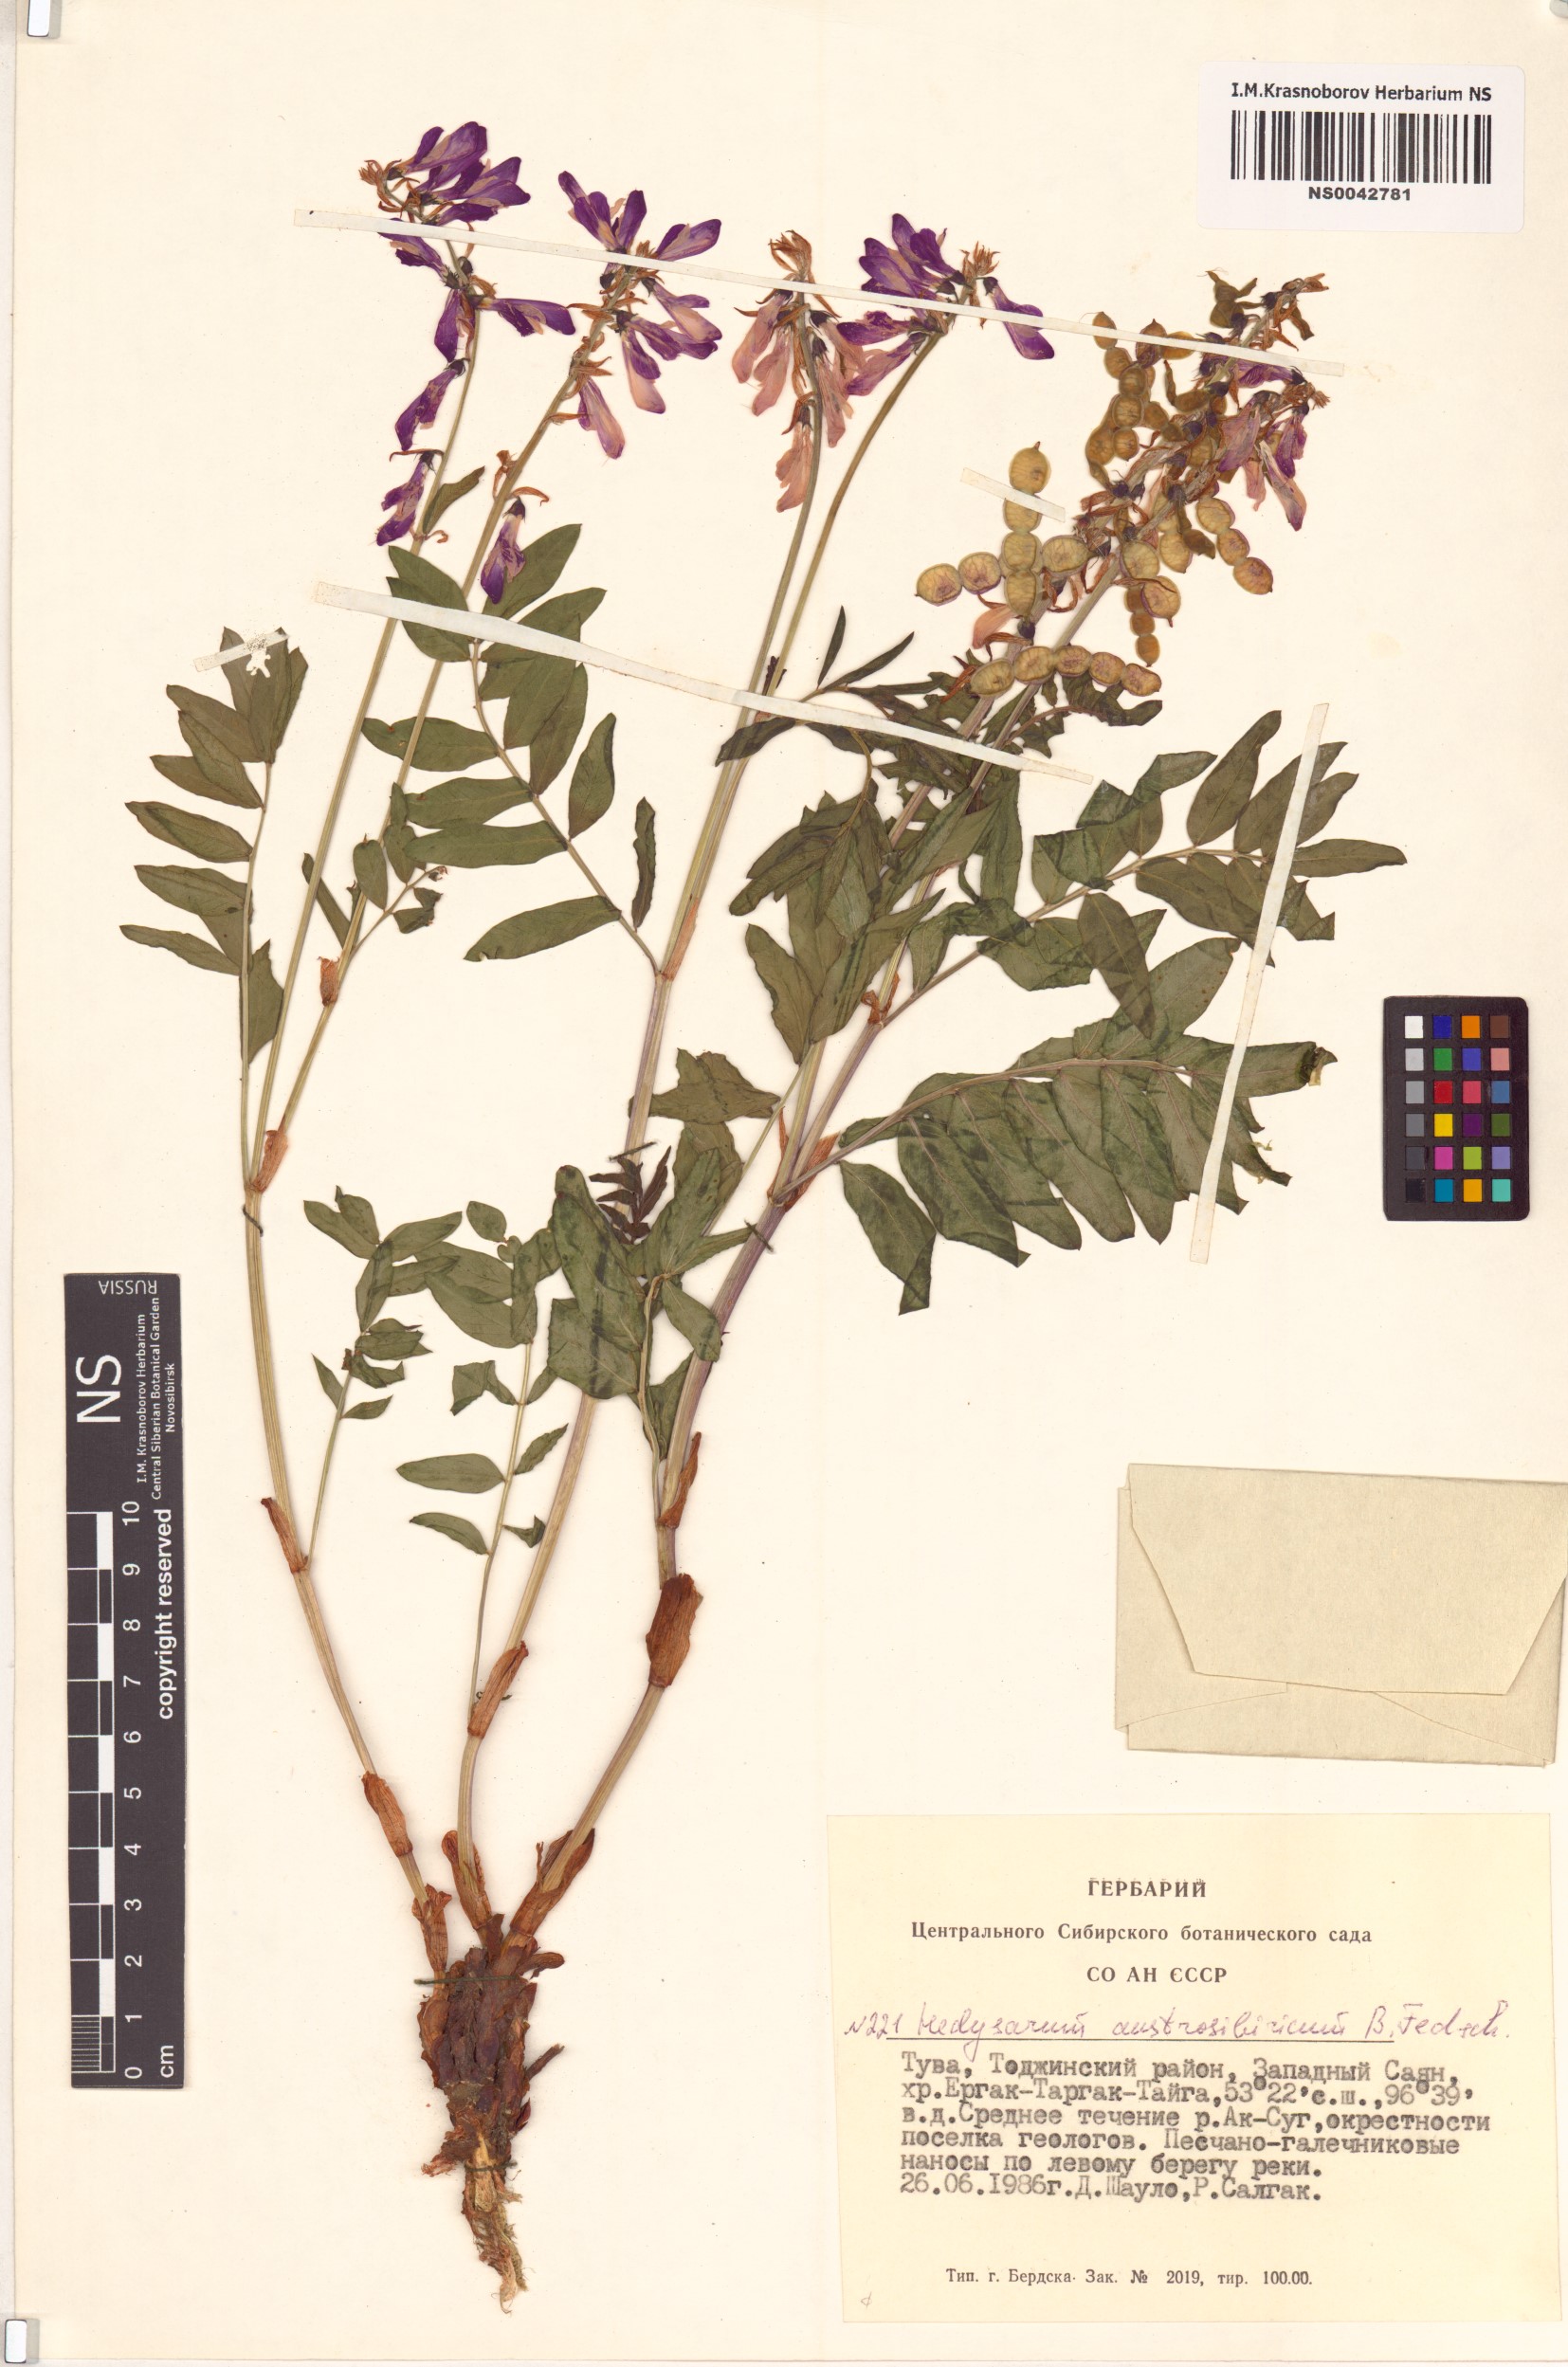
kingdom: Plantae
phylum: Tracheophyta
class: Magnoliopsida
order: Fabales
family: Fabaceae
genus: Hedysarum
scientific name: Hedysarum neglectum
